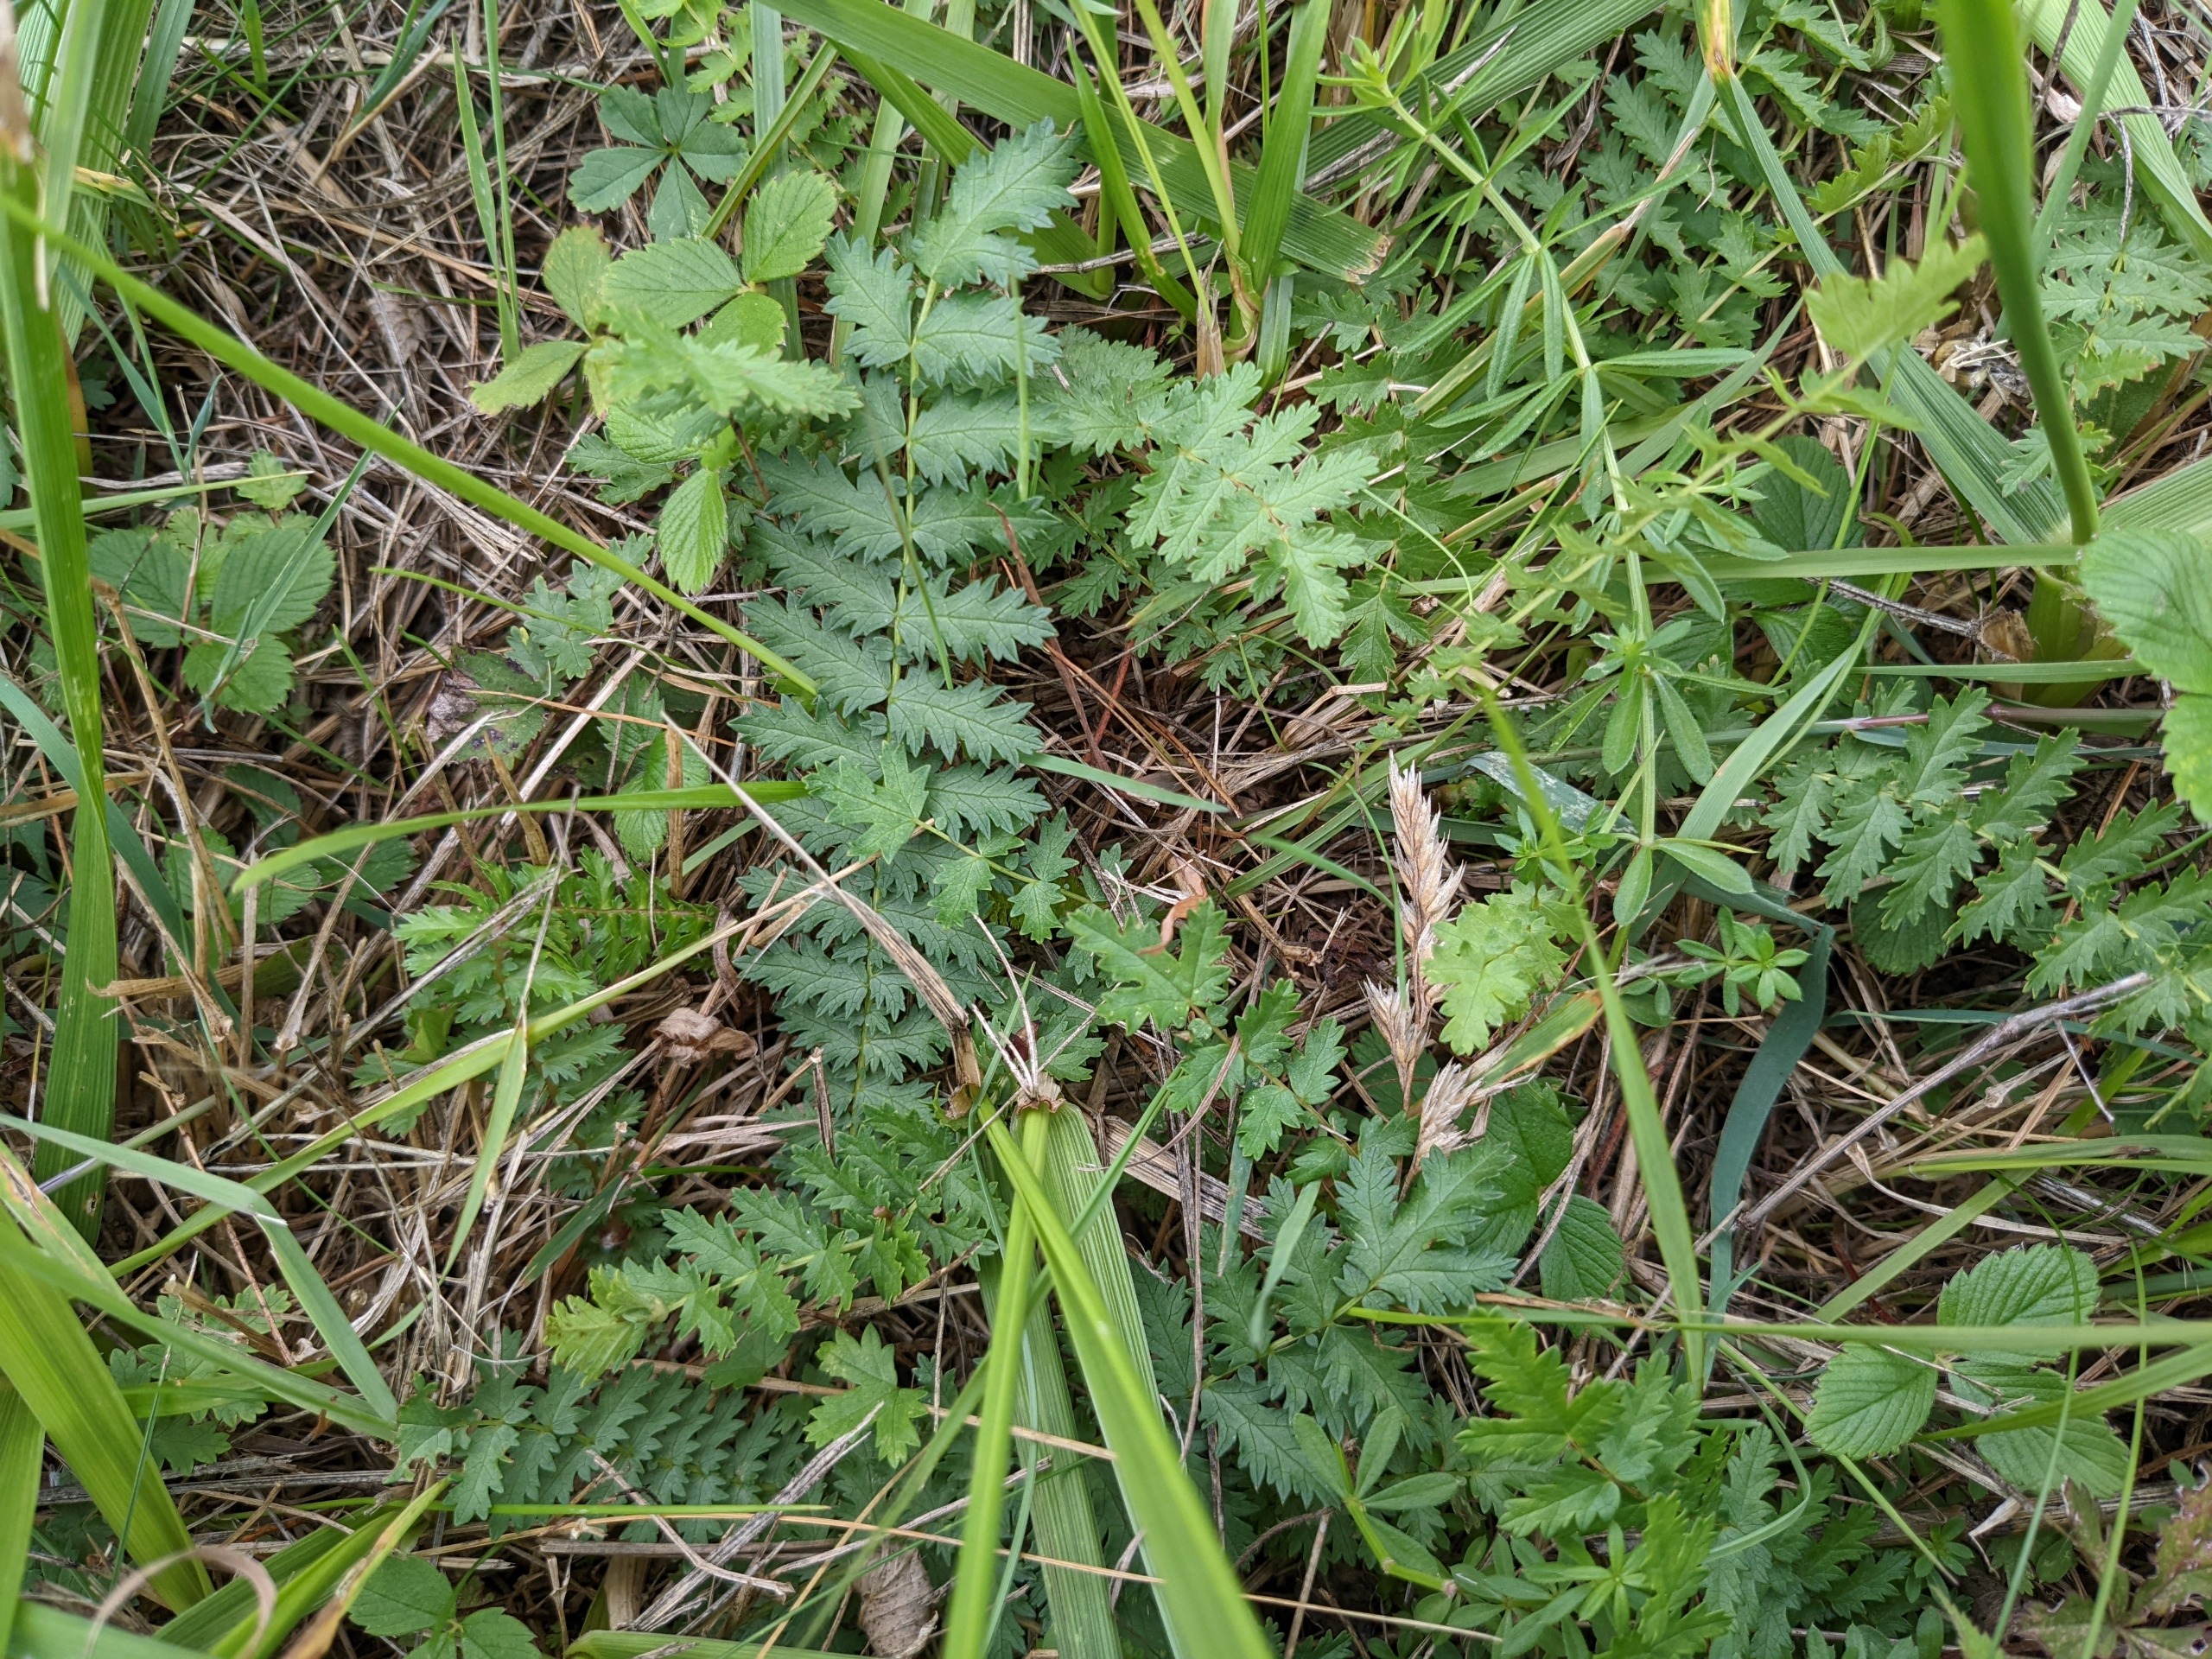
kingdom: Plantae
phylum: Tracheophyta
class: Magnoliopsida
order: Rosales
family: Rosaceae
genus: Filipendula
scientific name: Filipendula vulgaris
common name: Knoldet mjødurt
